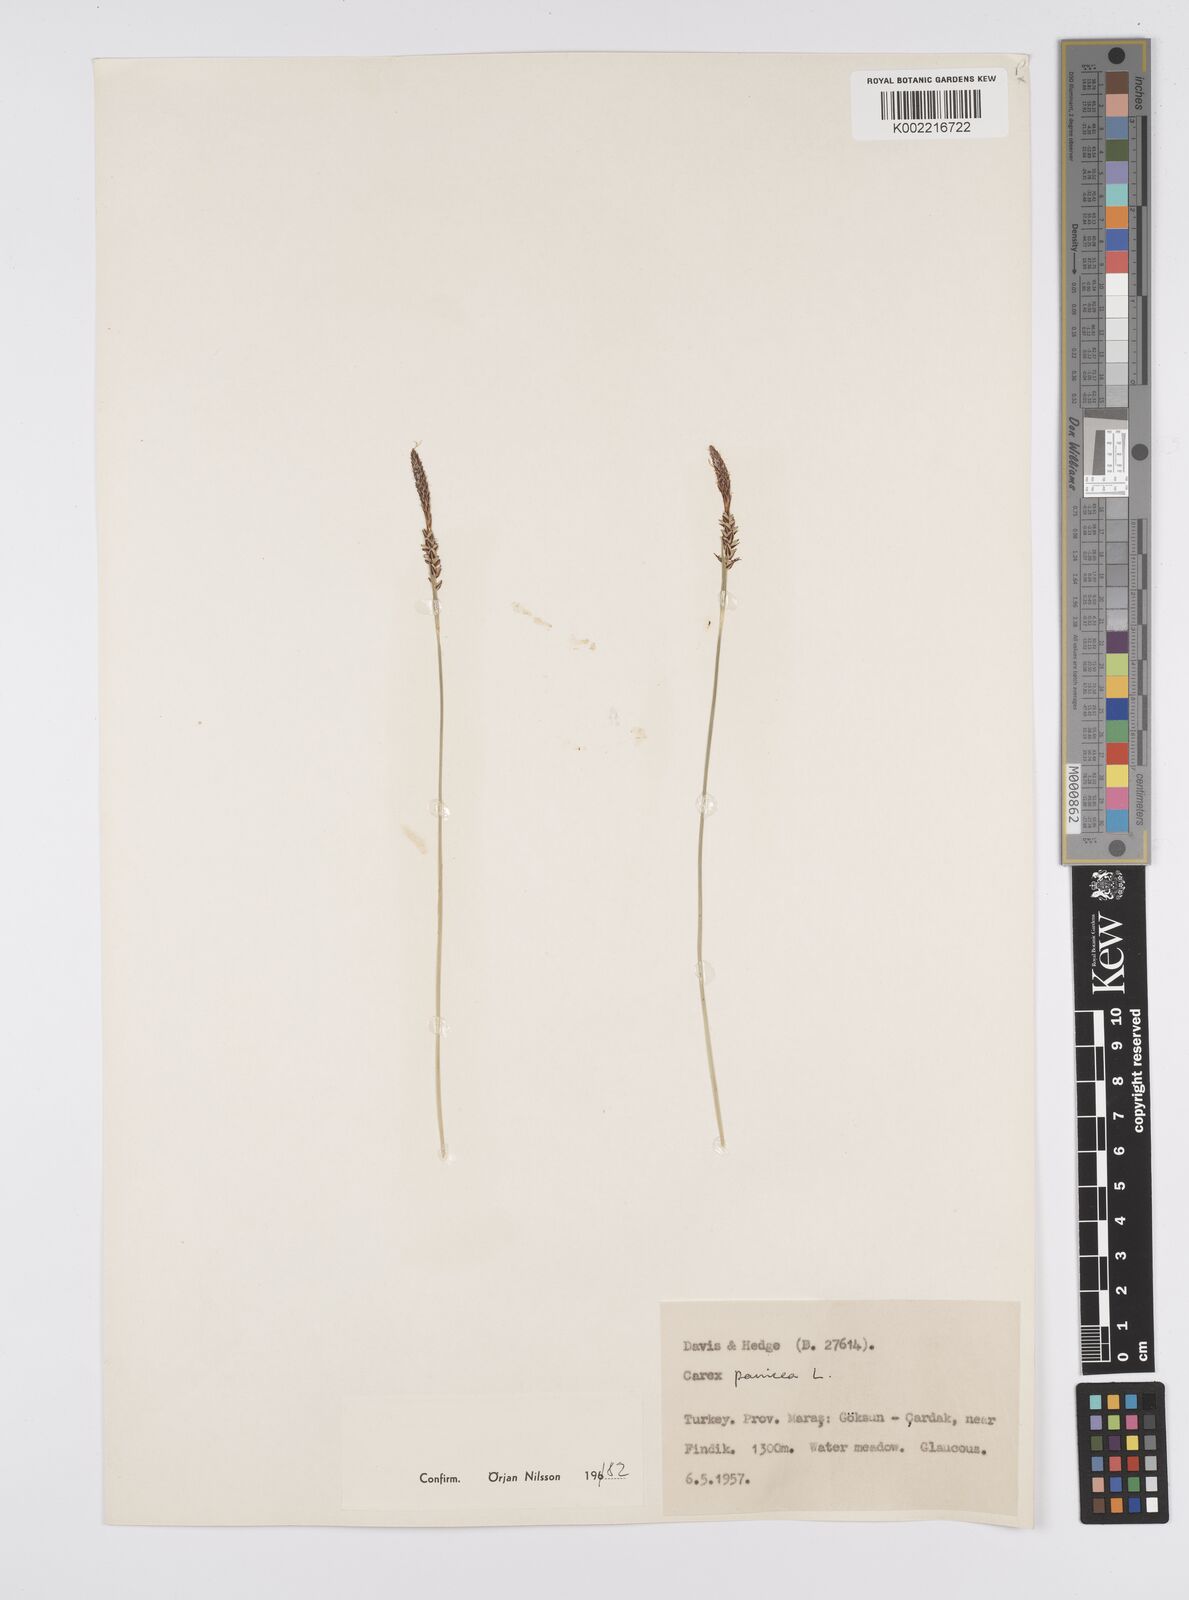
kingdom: Plantae
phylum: Tracheophyta
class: Liliopsida
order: Poales
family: Cyperaceae
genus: Carex
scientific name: Carex panicea
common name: Carnation sedge
